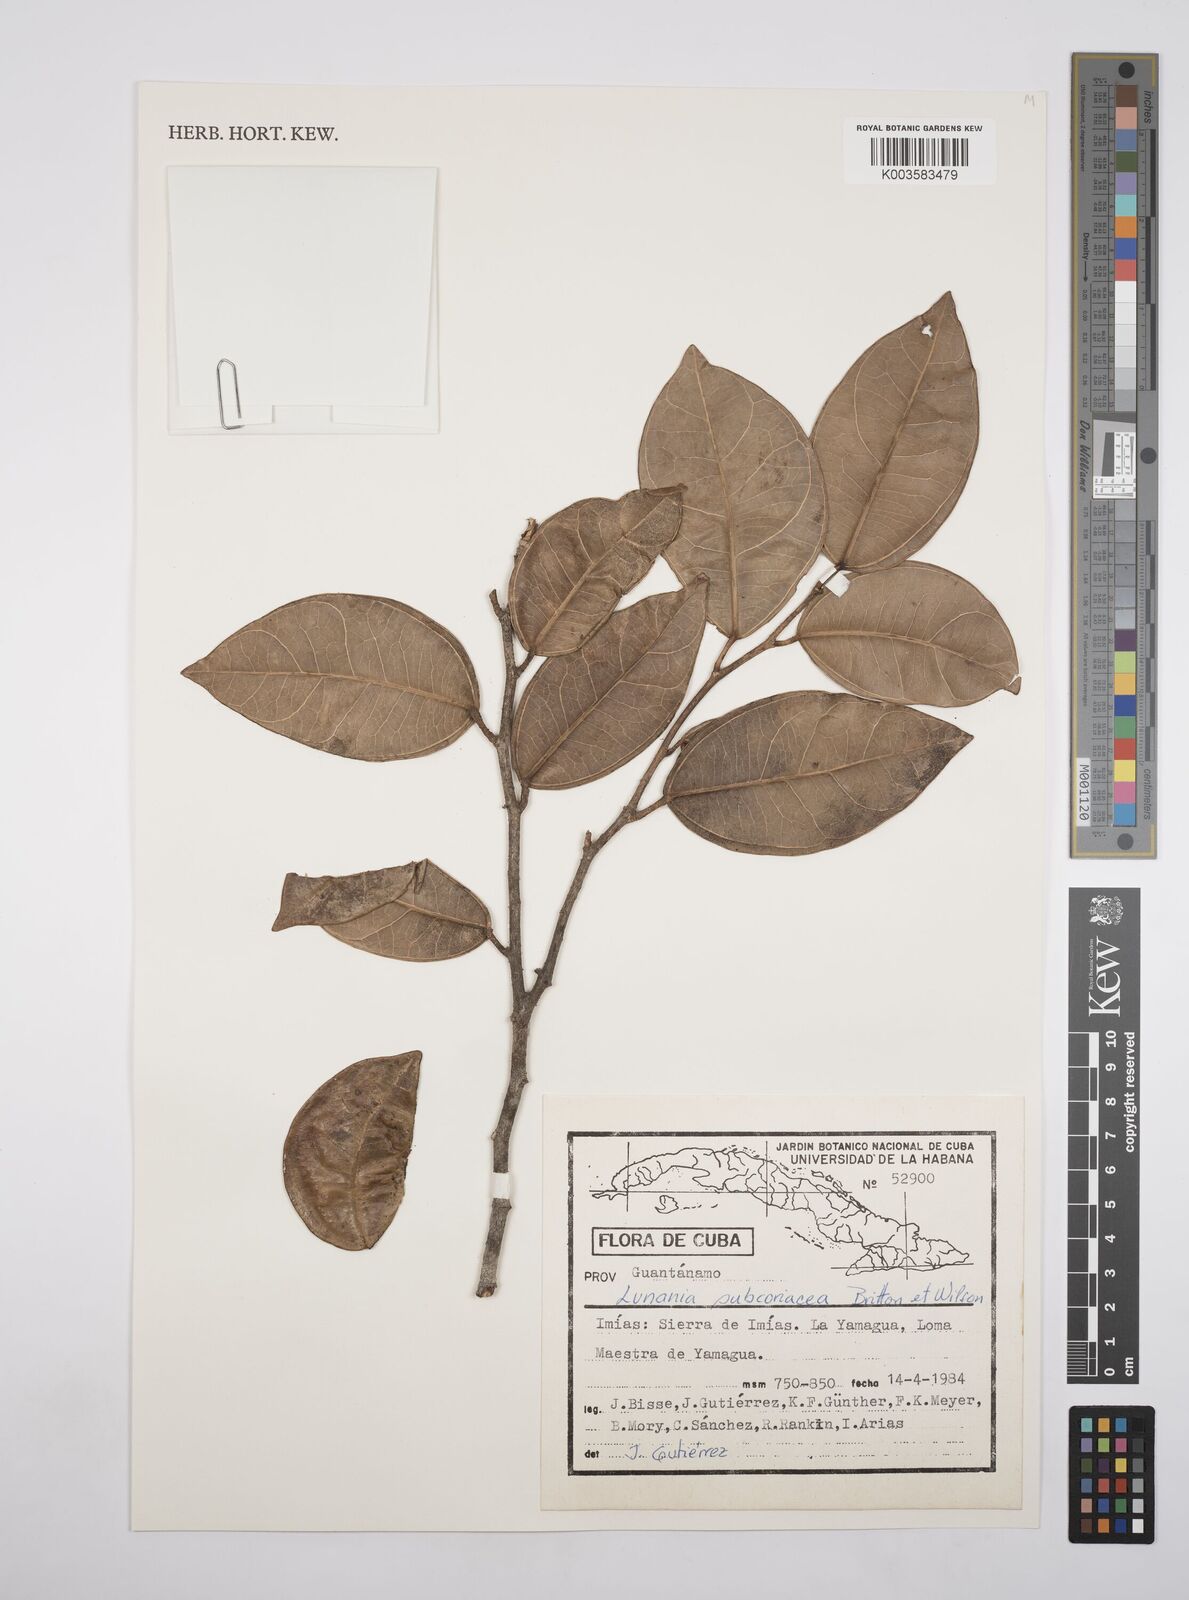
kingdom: Plantae
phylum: Tracheophyta
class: Magnoliopsida
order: Malpighiales
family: Salicaceae
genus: Lunania
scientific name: Lunania subcoriacea
